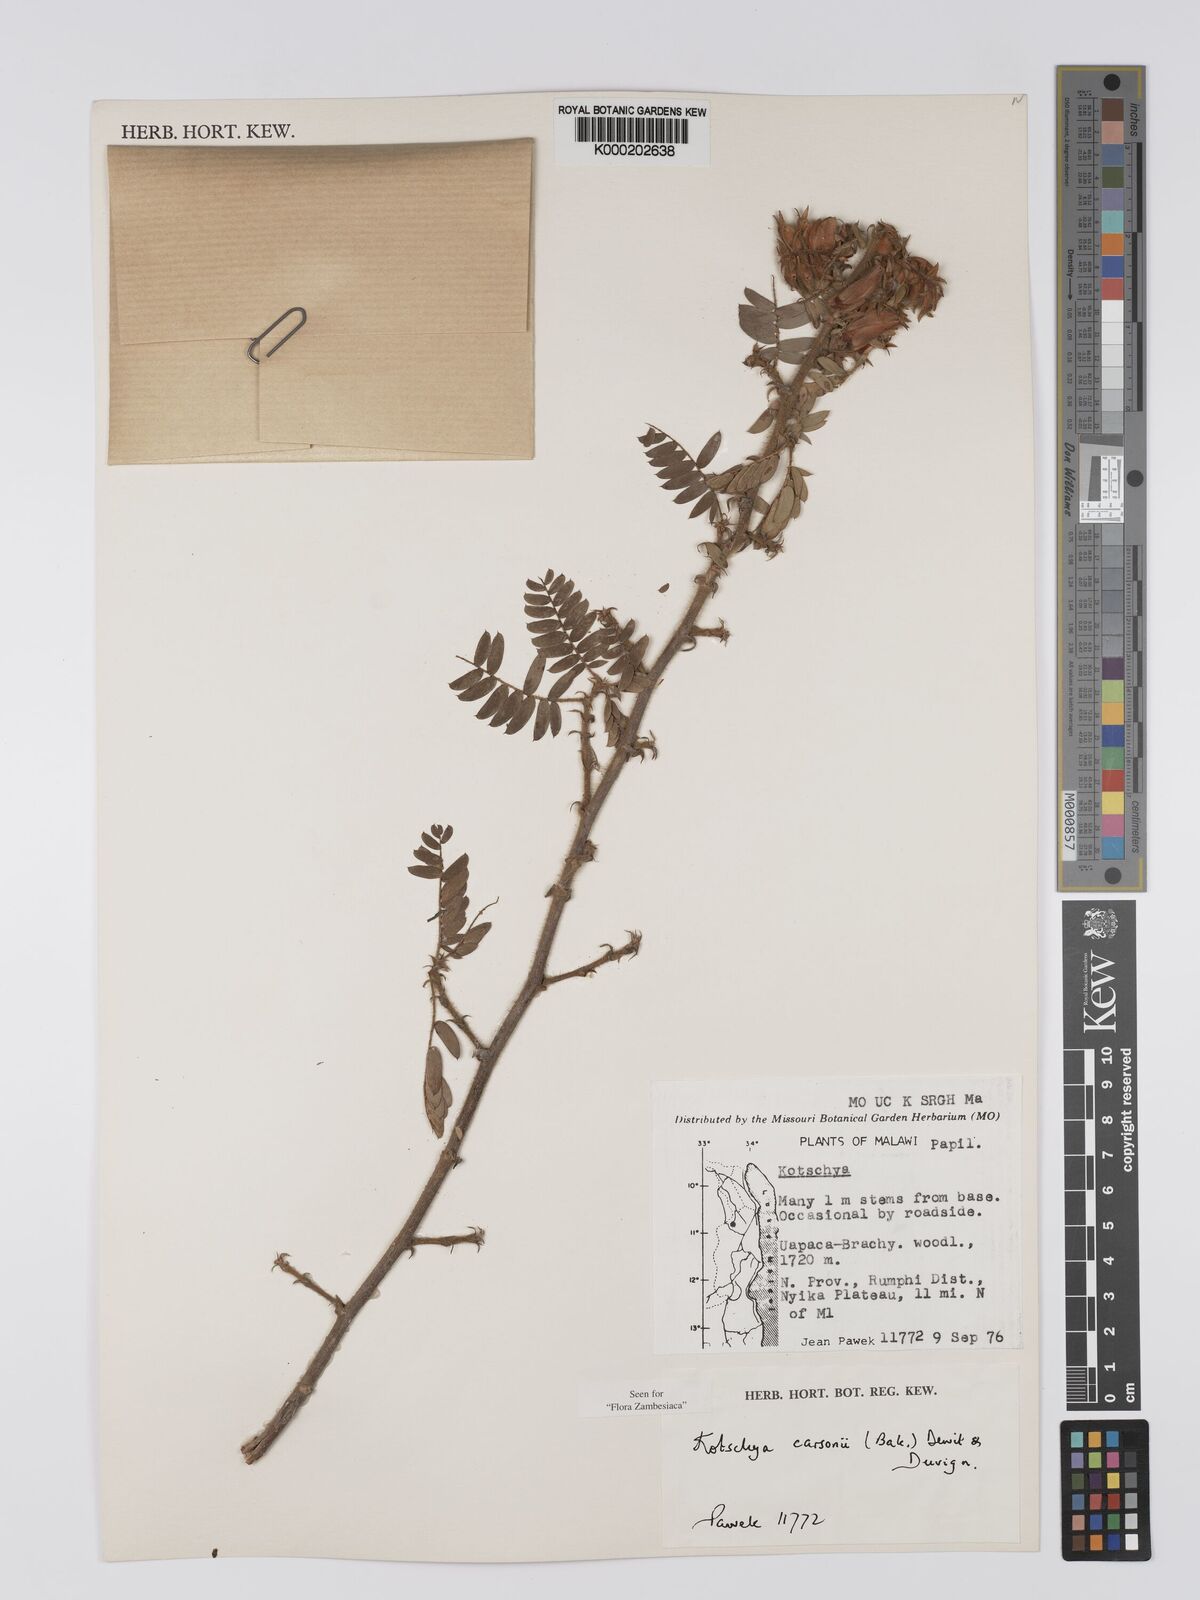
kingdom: Plantae
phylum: Tracheophyta
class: Magnoliopsida
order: Fabales
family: Fabaceae
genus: Kotschya
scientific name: Kotschya carsonii
